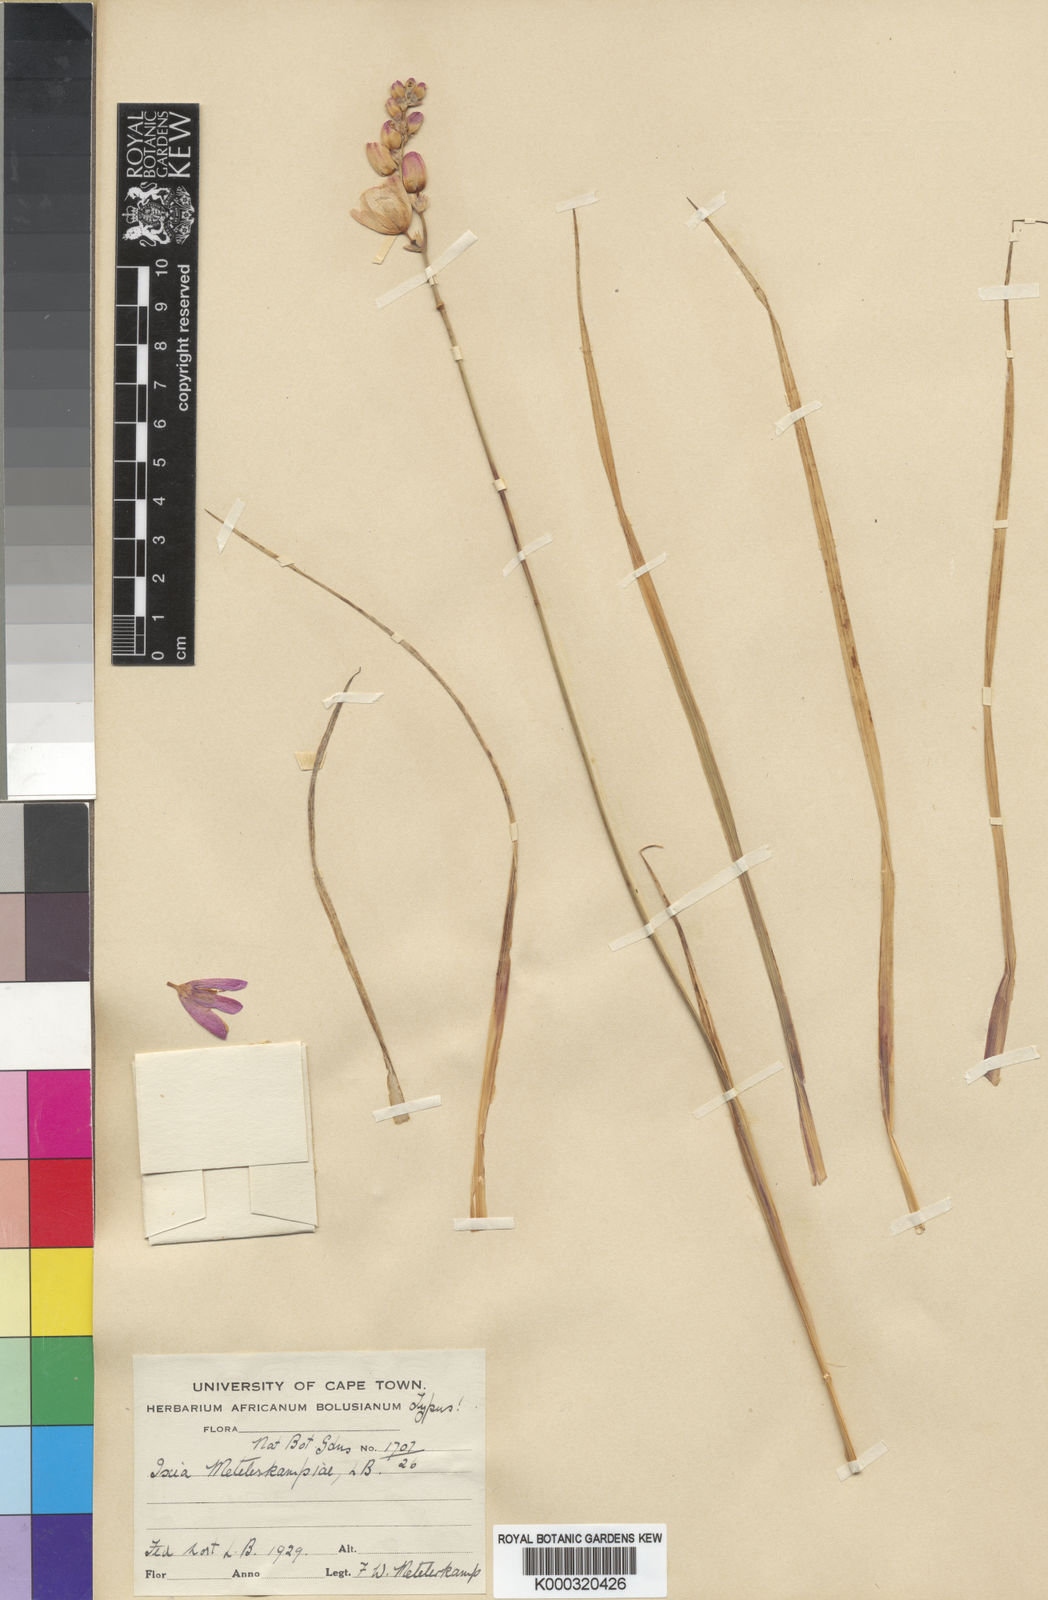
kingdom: Plantae
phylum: Tracheophyta
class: Liliopsida
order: Asparagales
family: Iridaceae
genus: Ixia
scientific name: Ixia metelerkampiae
